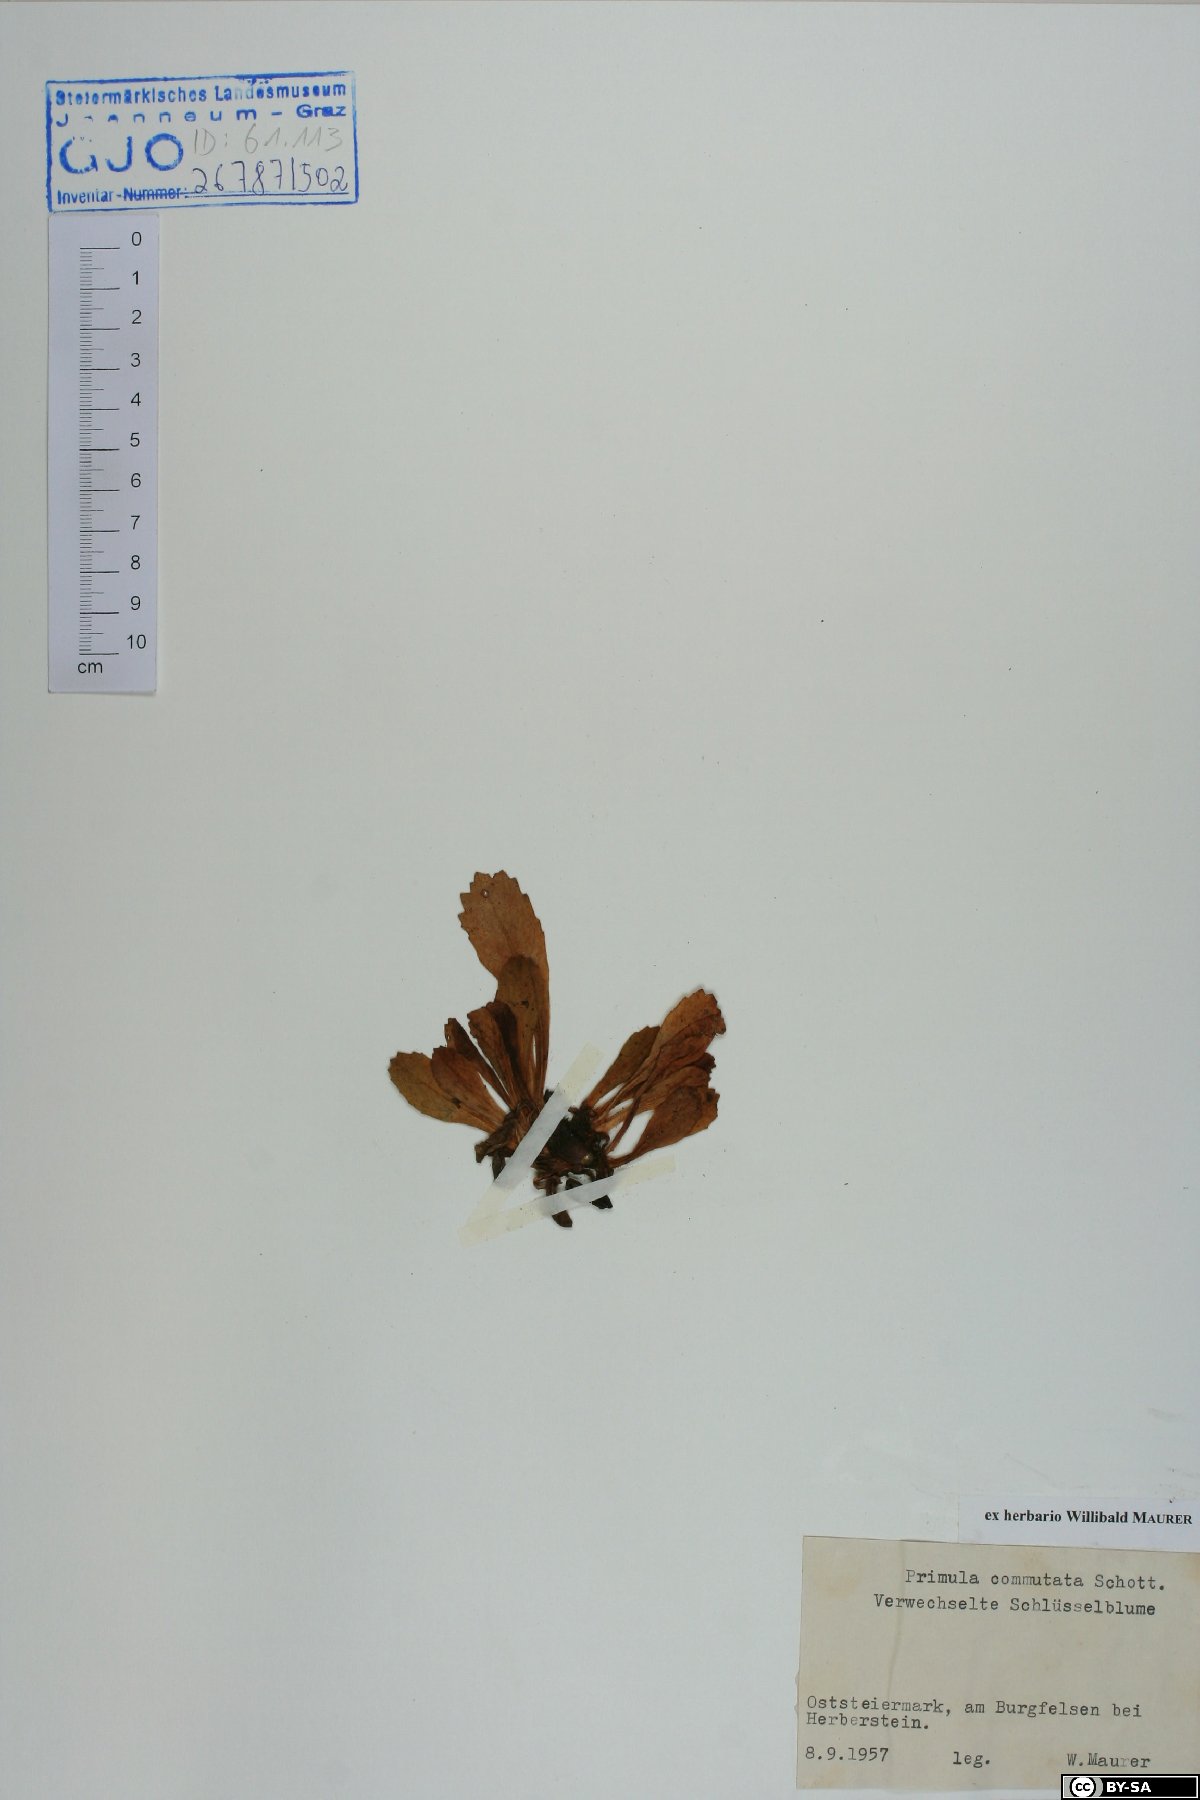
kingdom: Plantae
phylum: Tracheophyta
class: Magnoliopsida
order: Ericales
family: Primulaceae
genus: Primula
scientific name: Primula villosa
